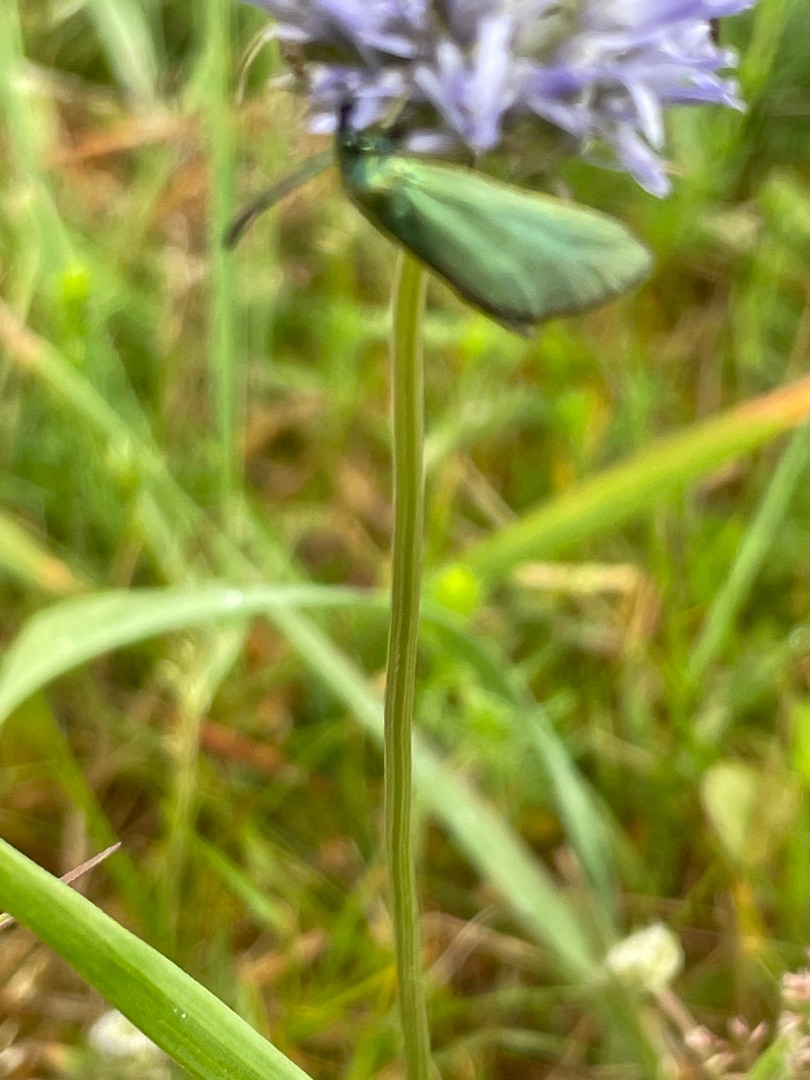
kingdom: Animalia
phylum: Arthropoda
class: Insecta
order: Lepidoptera
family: Zygaenidae
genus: Adscita
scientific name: Adscita statices
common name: Metalvinge
